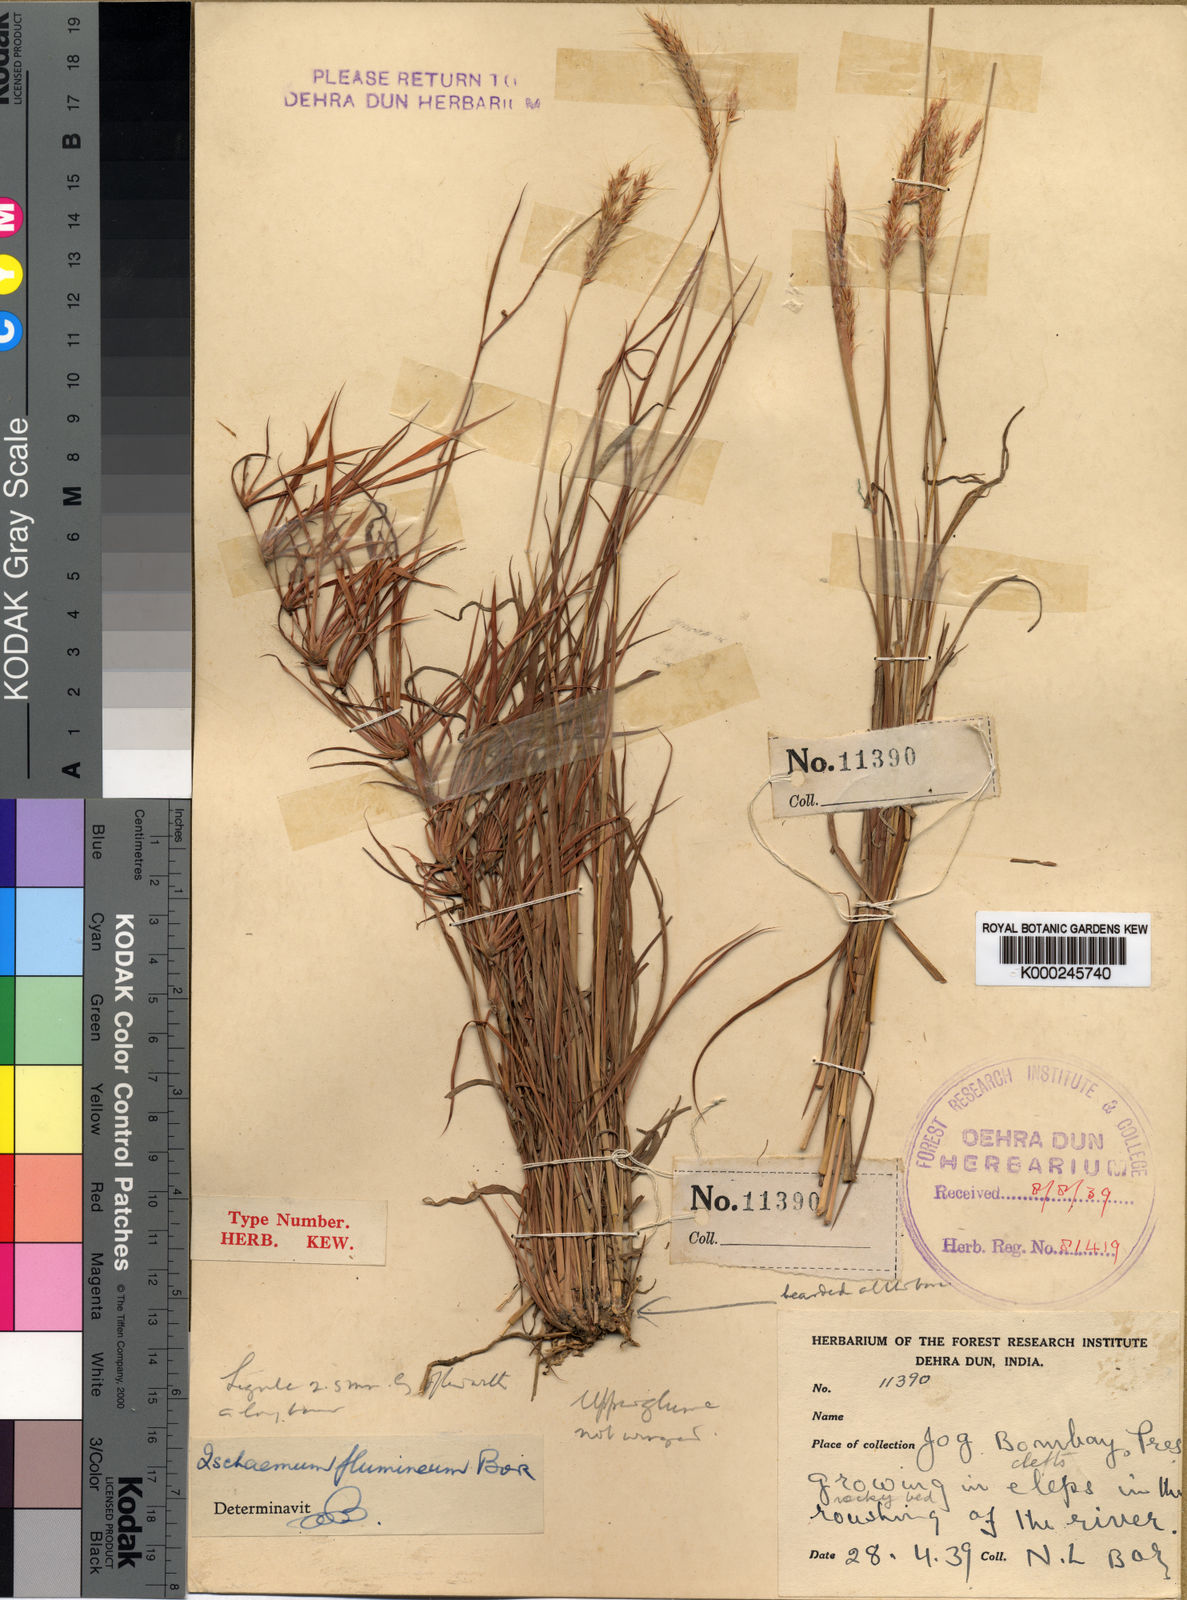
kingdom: Plantae
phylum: Tracheophyta
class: Liliopsida
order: Poales
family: Poaceae
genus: Ischaemum
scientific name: Ischaemum flumineum
